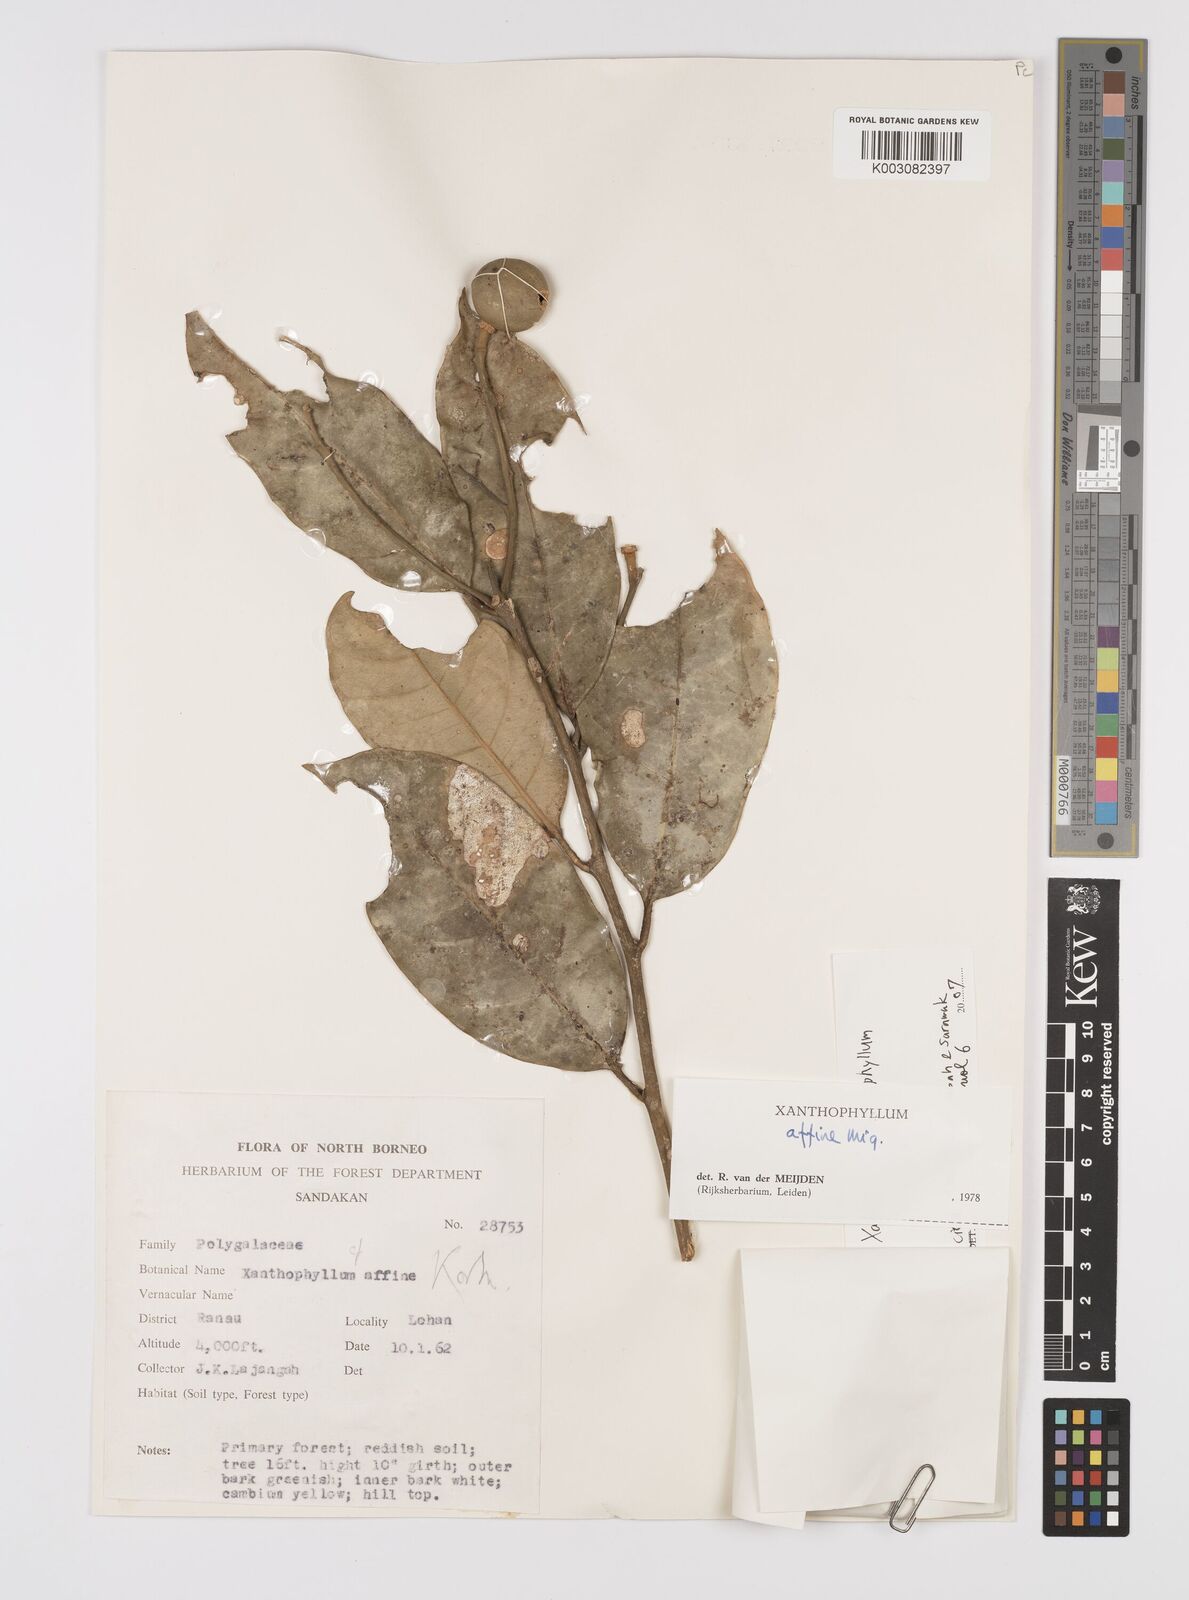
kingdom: Plantae
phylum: Tracheophyta
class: Magnoliopsida
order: Fabales
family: Polygalaceae
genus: Xanthophyllum
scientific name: Xanthophyllum macrophyllum
